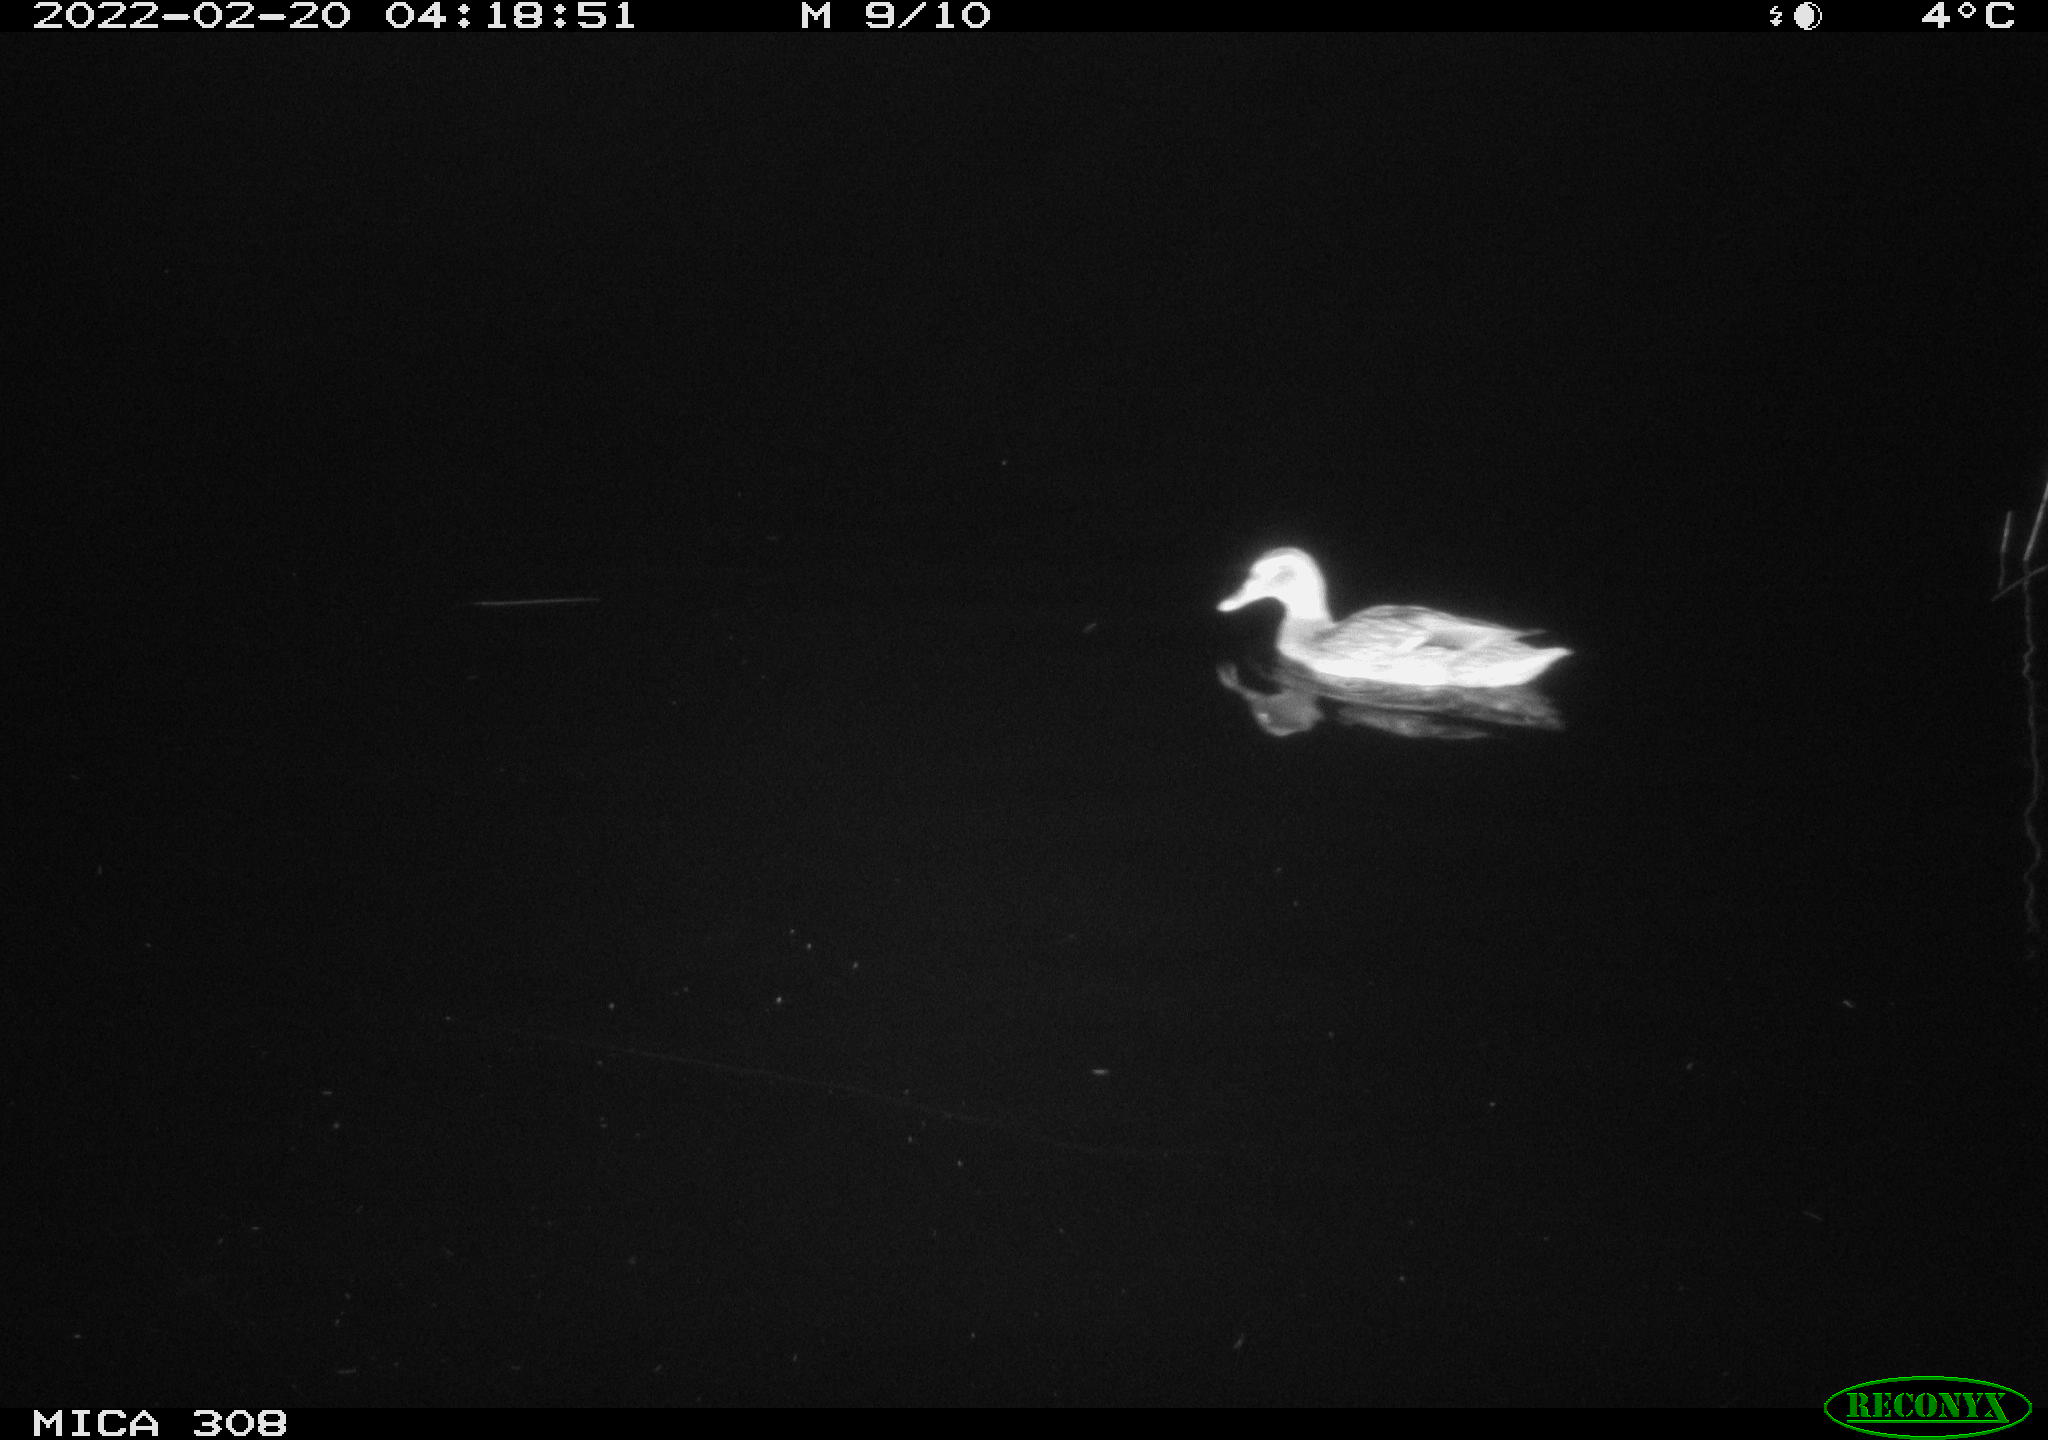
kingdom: Animalia
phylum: Chordata
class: Aves
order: Anseriformes
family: Anatidae
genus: Anas
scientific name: Anas platyrhynchos
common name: Mallard
